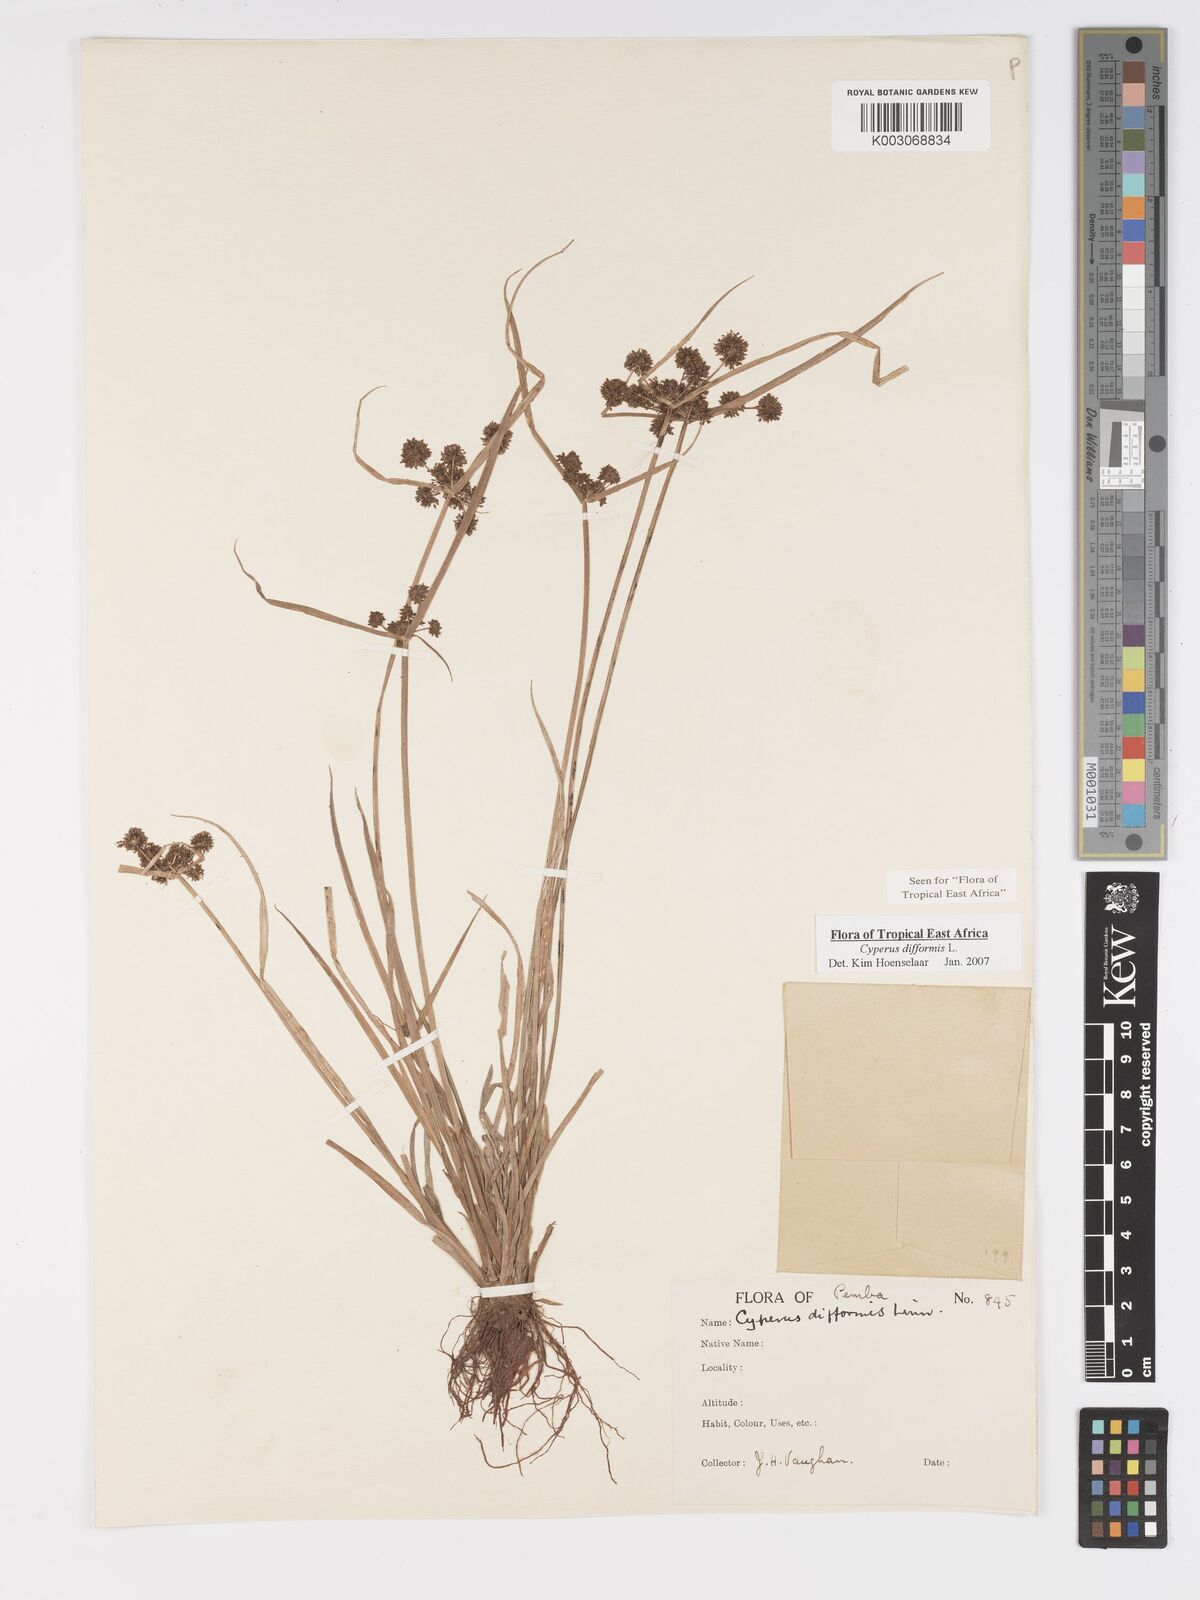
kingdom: Plantae
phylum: Tracheophyta
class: Liliopsida
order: Poales
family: Cyperaceae
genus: Cyperus
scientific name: Cyperus difformis
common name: Variable flatsedge
